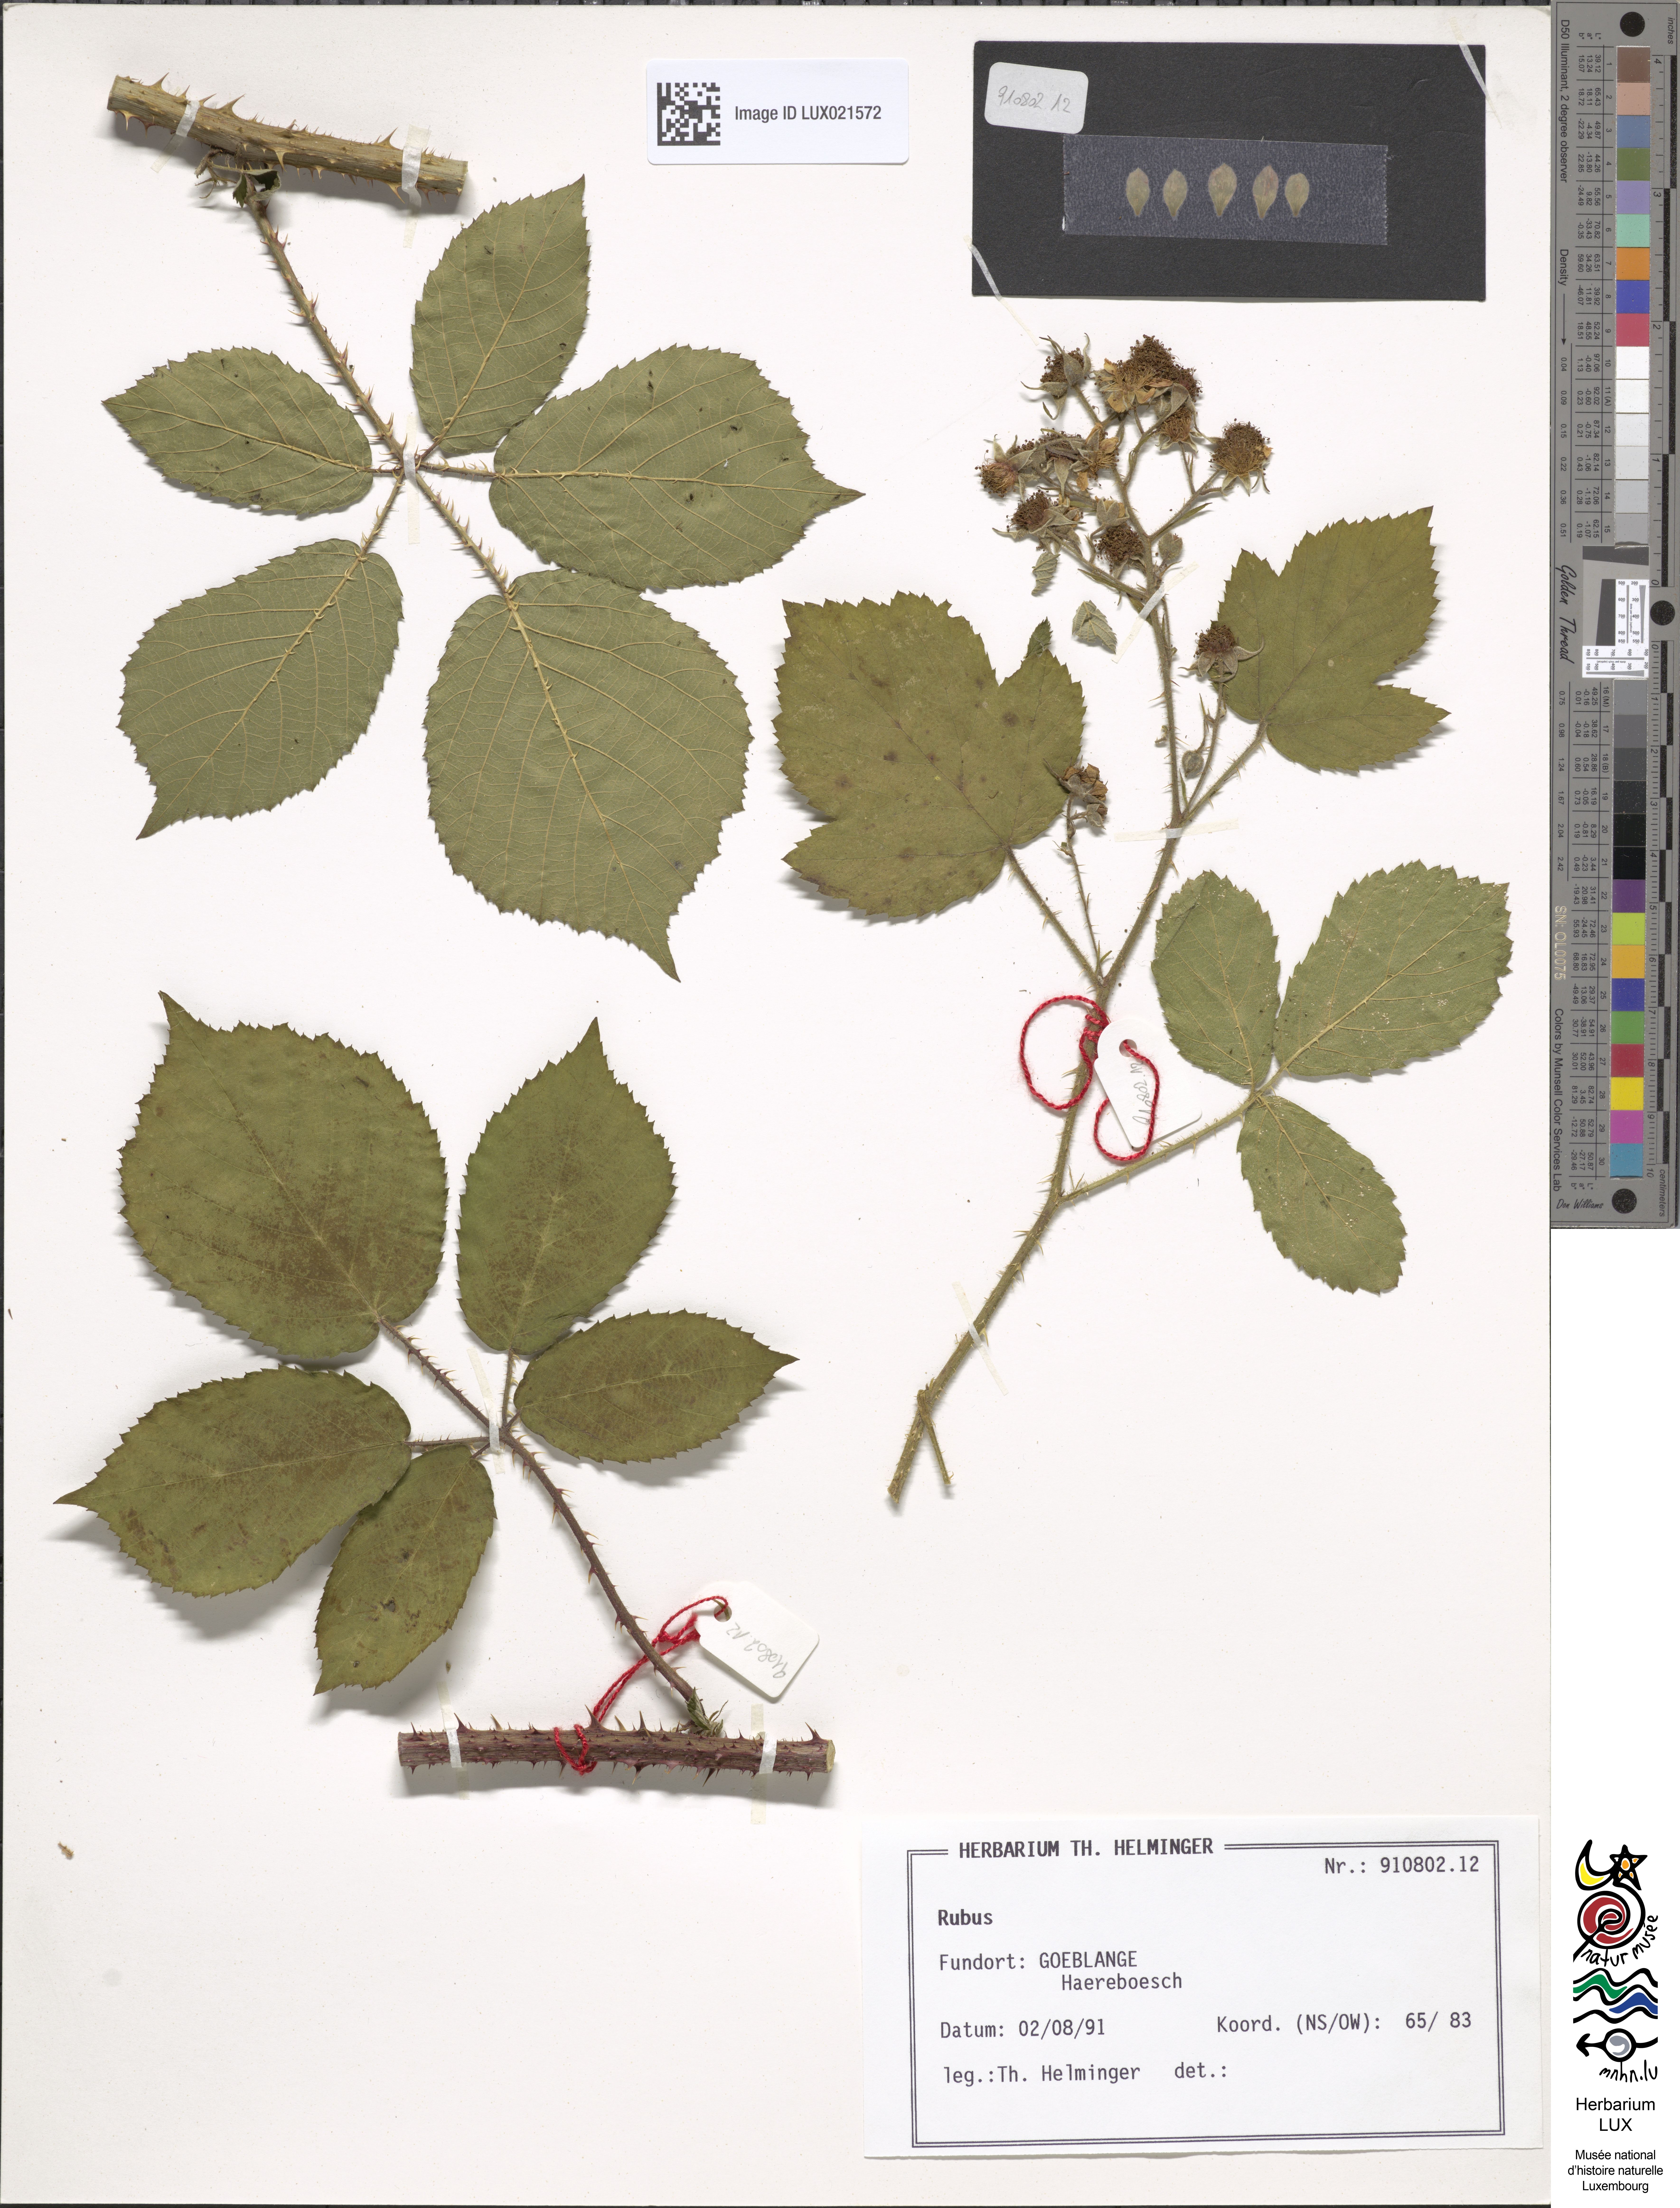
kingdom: Plantae
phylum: Tracheophyta
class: Magnoliopsida
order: Rosales
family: Rosaceae
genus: Rubus
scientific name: Rubus
